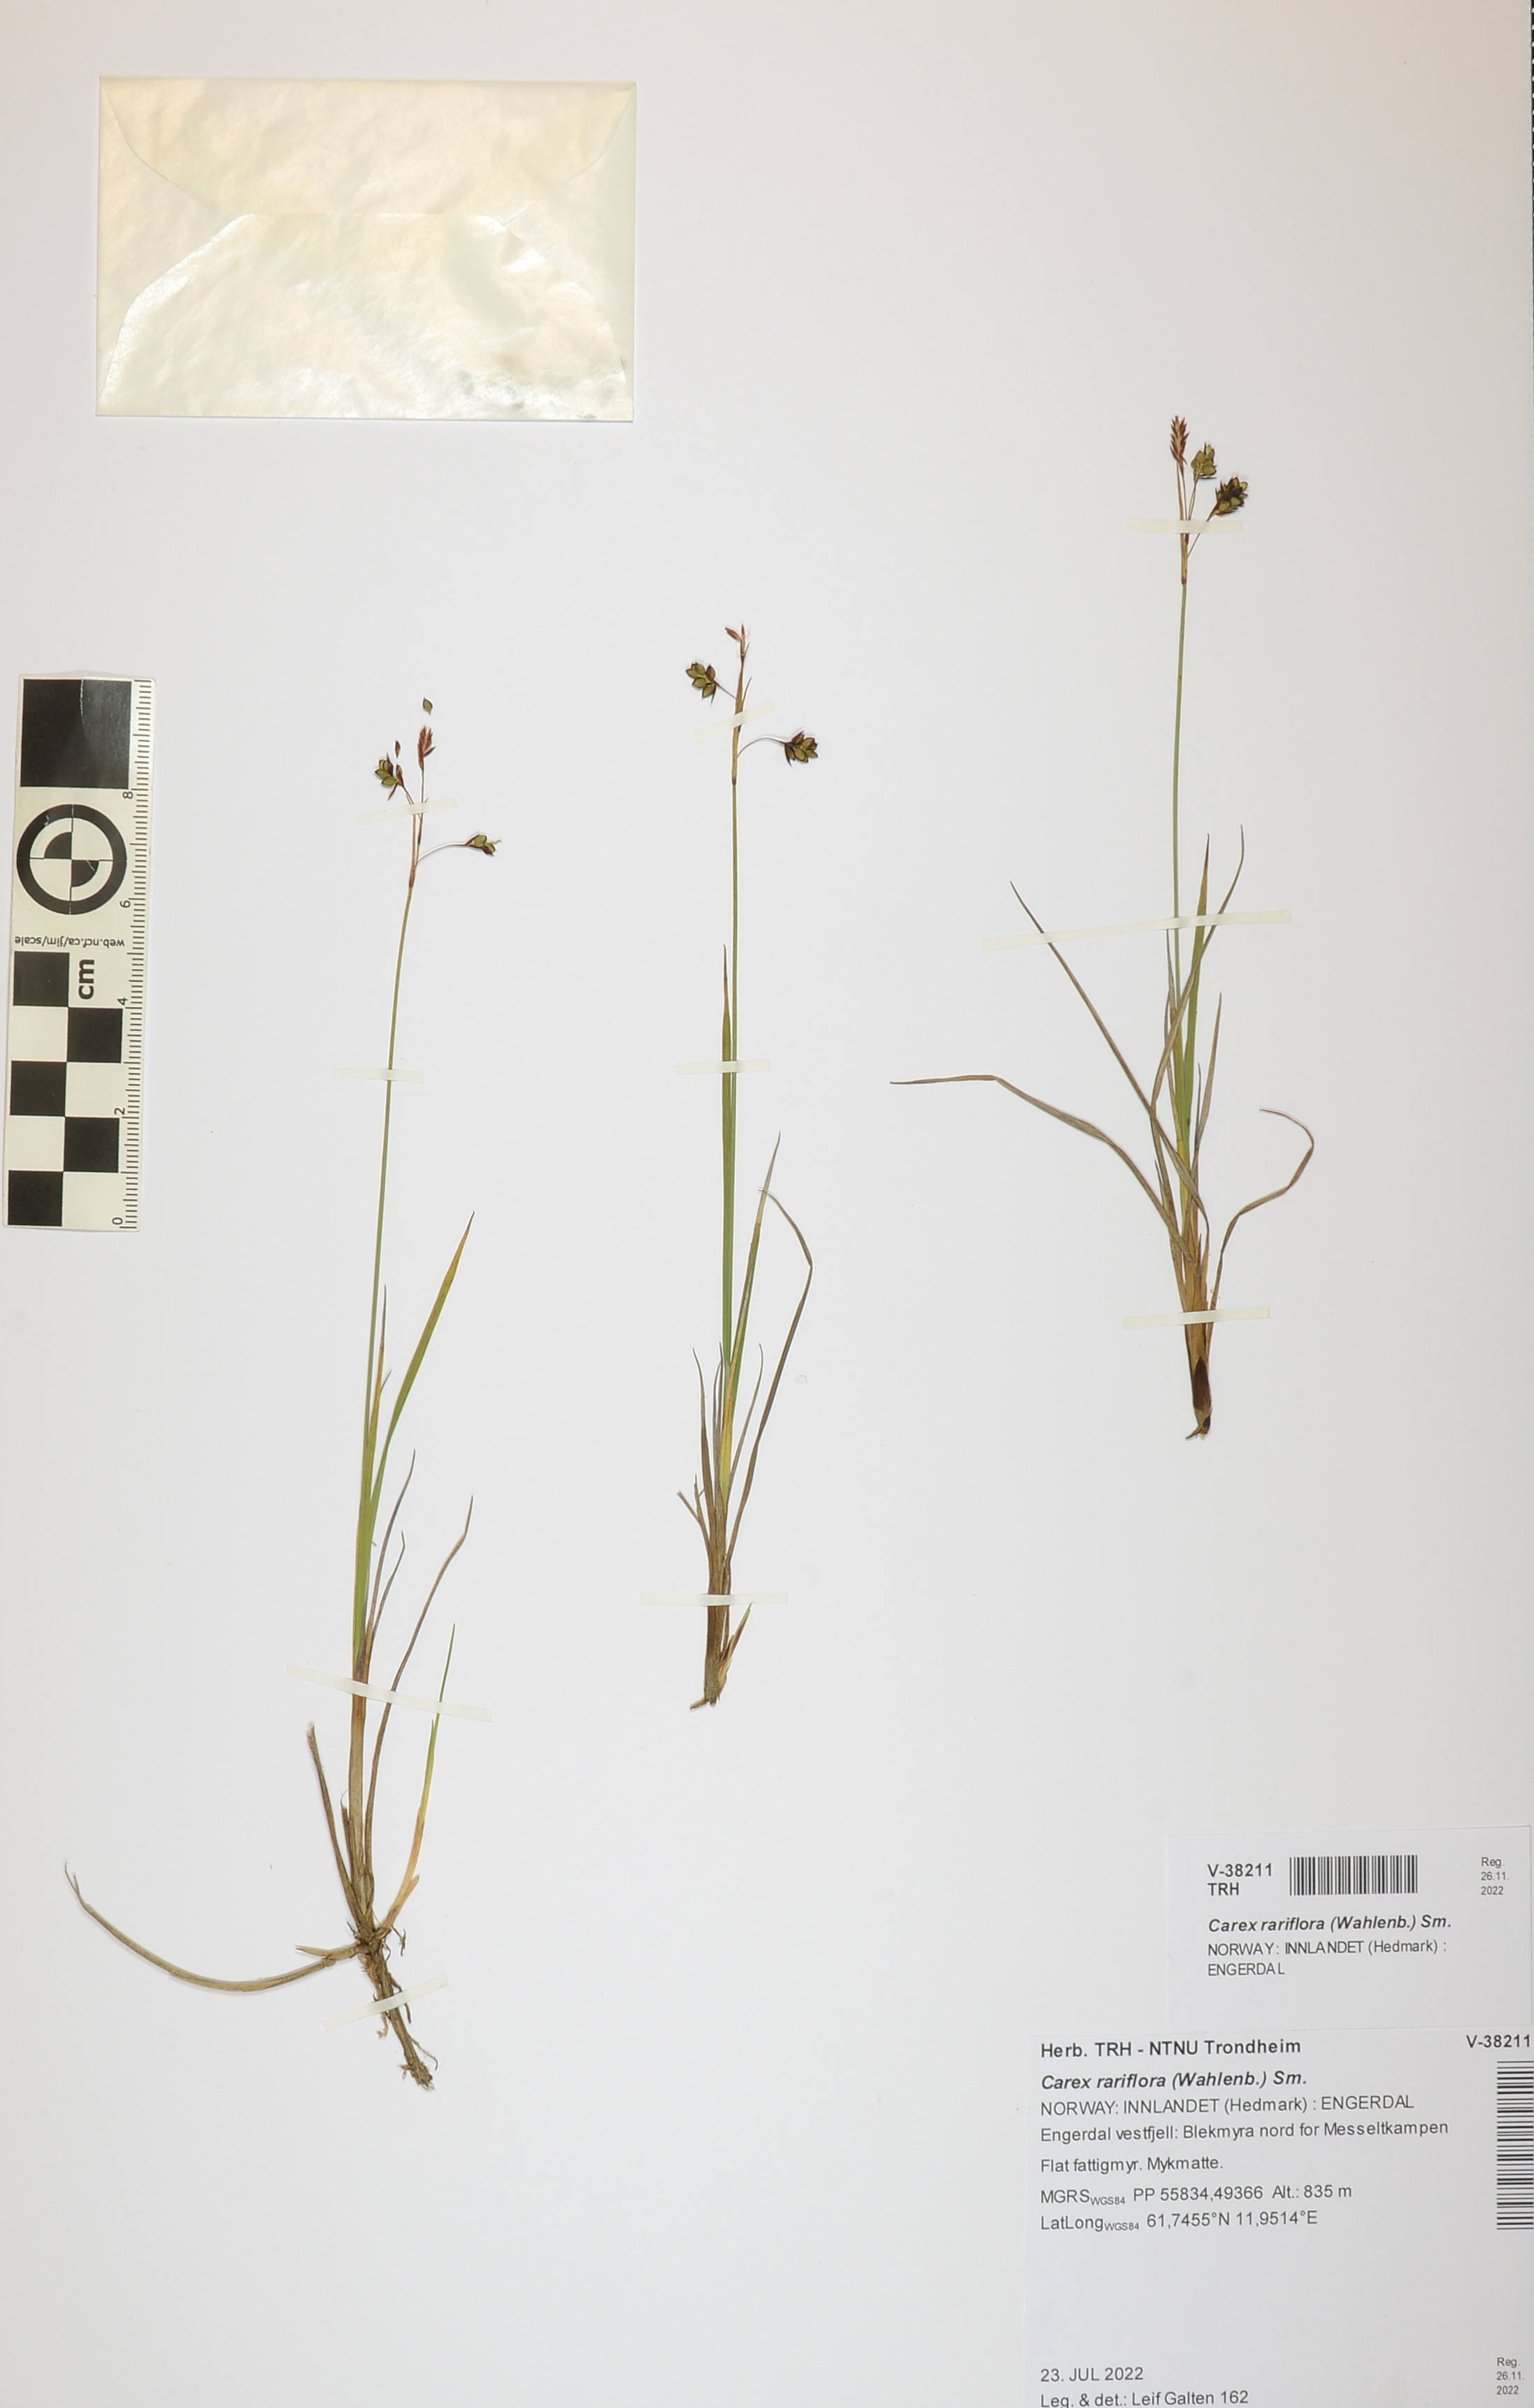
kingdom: Plantae
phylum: Tracheophyta
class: Liliopsida
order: Poales
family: Cyperaceae
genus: Carex
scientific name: Carex rariflora
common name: Loose-flowered alpine sedge
